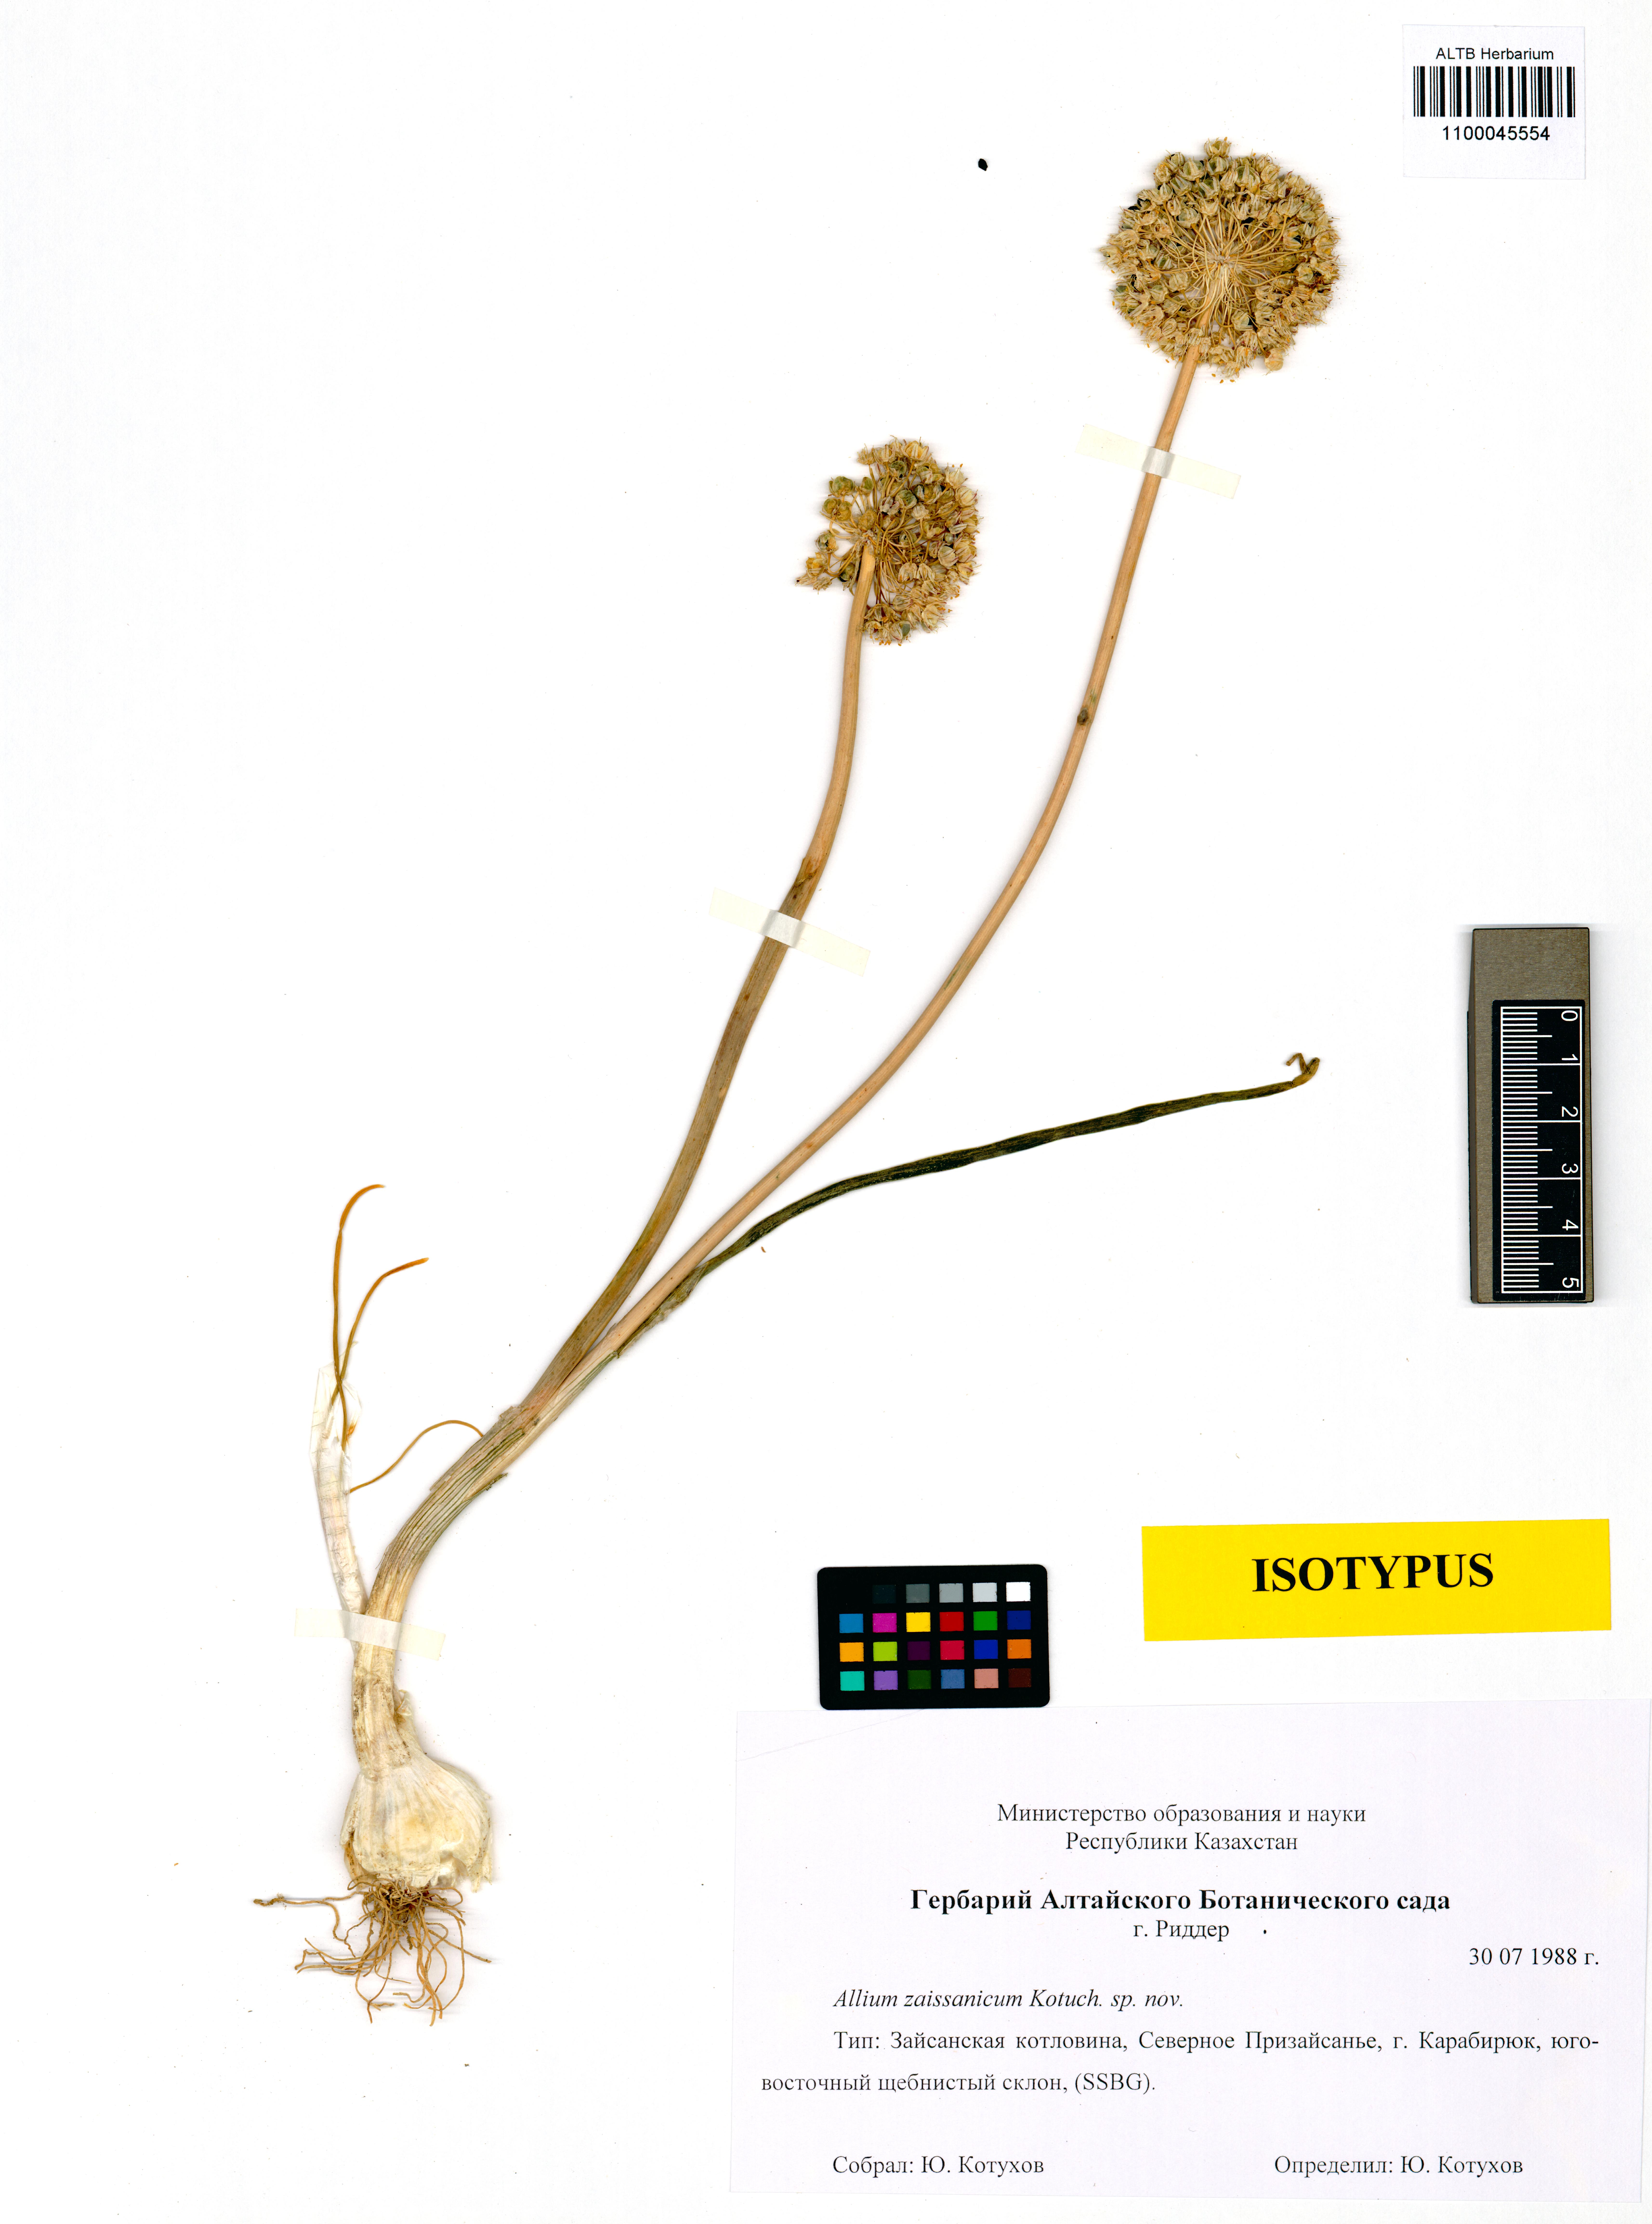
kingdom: Plantae
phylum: Tracheophyta
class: Liliopsida
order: Asparagales
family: Amaryllidaceae
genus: Allium
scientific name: Allium zaissanicum
